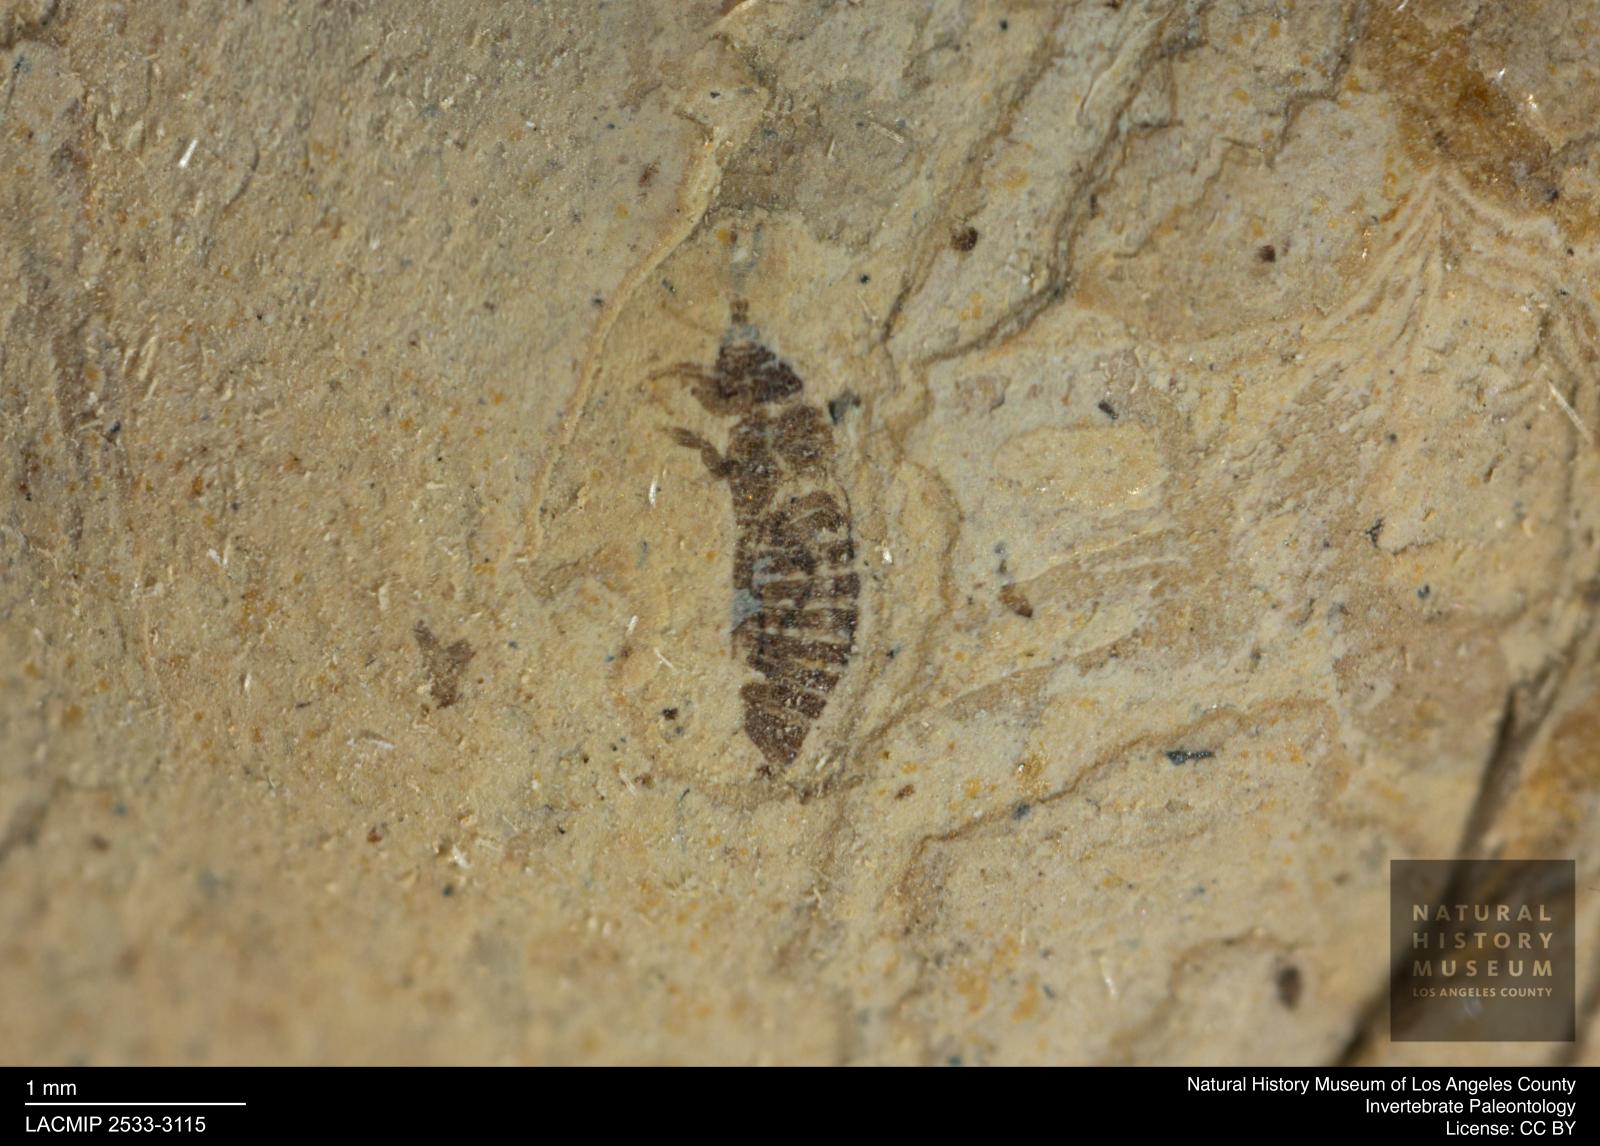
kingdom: Animalia
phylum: Arthropoda
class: Insecta
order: Thysanoptera
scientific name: Thysanoptera
